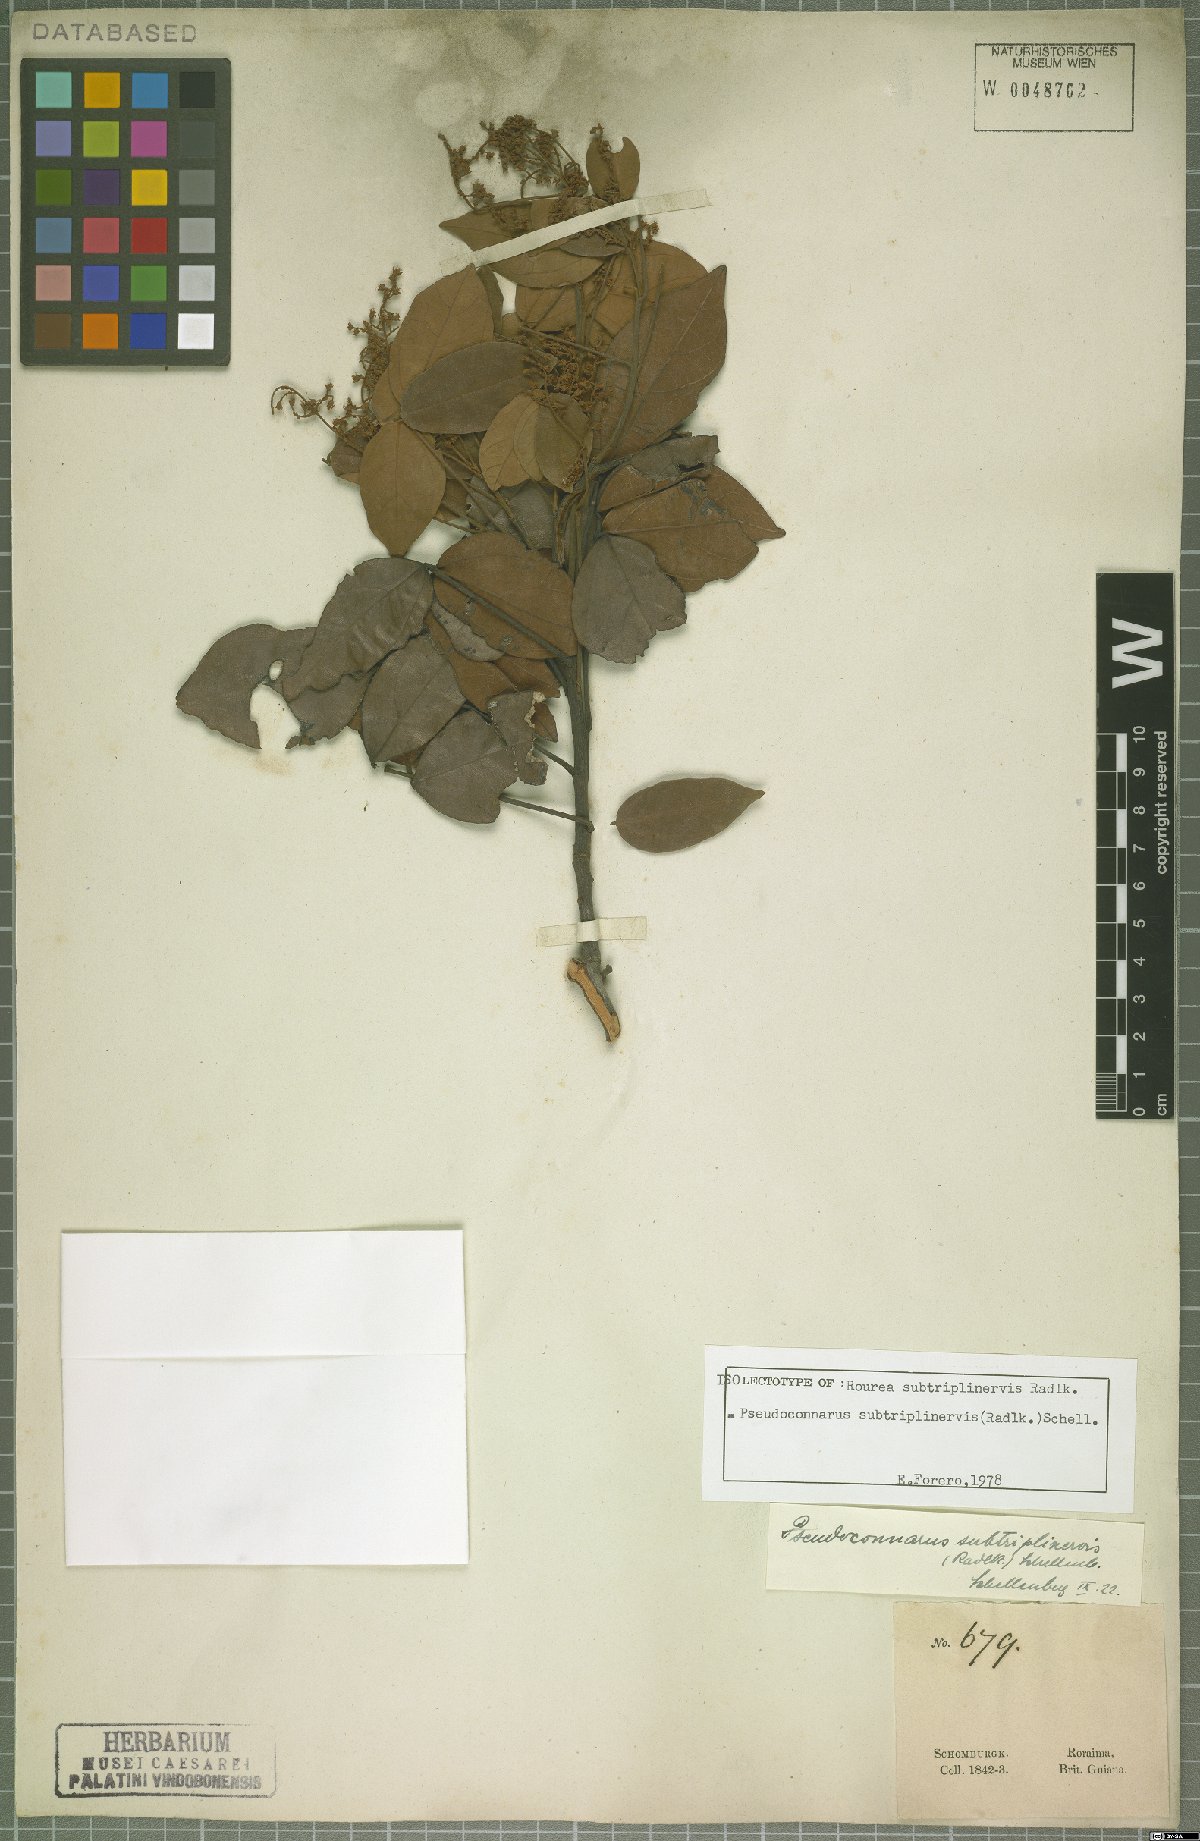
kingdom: Plantae
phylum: Tracheophyta
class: Magnoliopsida
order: Oxalidales
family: Connaraceae
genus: Pseudoconnarus
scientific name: Pseudoconnarus subtriplinervis
